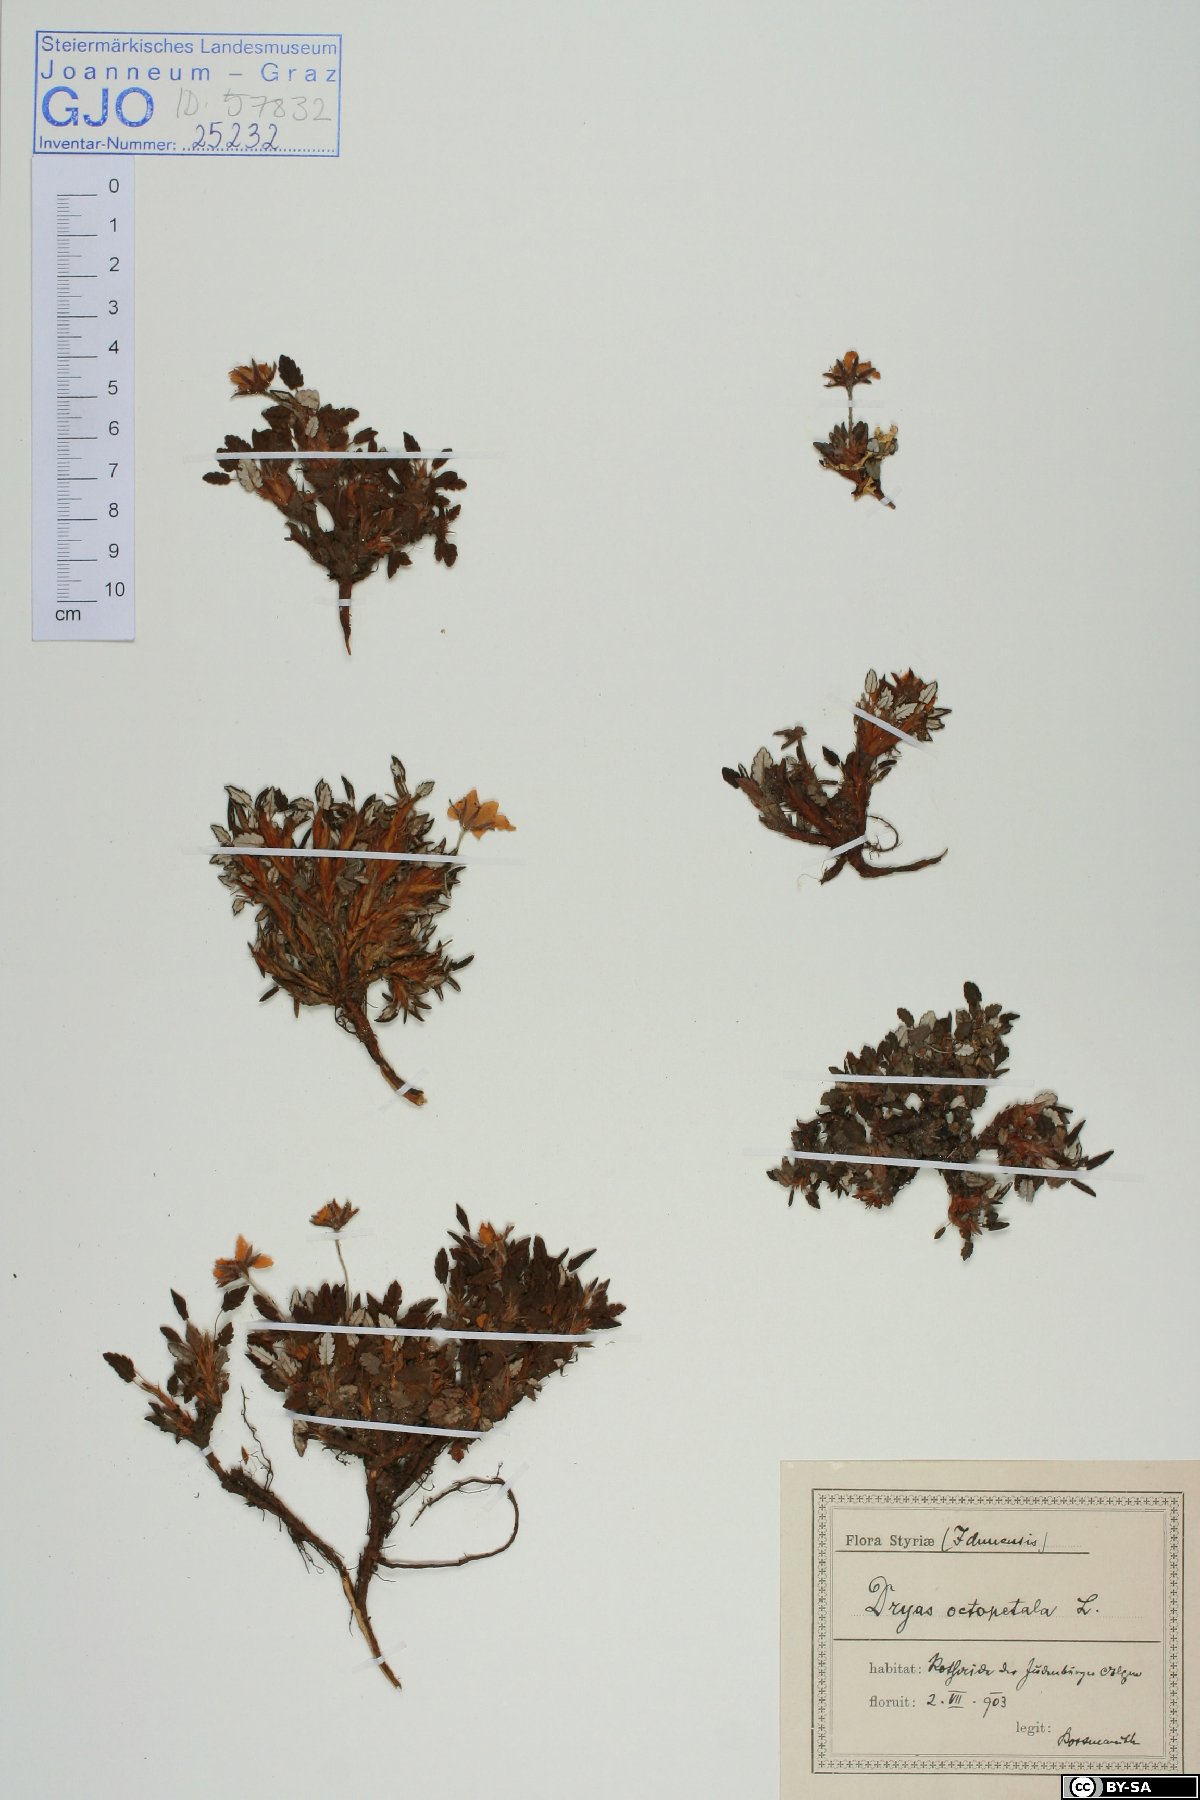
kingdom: Plantae
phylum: Tracheophyta
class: Magnoliopsida
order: Rosales
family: Rosaceae
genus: Dryas
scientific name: Dryas octopetala
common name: Eight-petal mountain-avens
